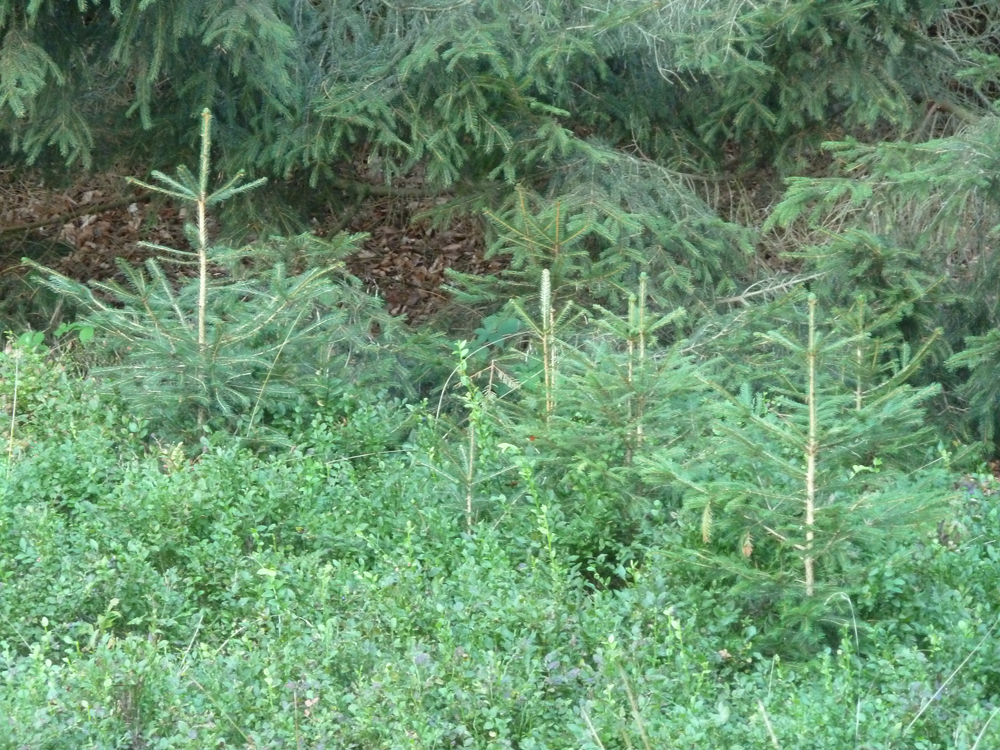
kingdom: Plantae
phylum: Tracheophyta
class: Pinopsida
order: Pinales
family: Pinaceae
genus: Picea
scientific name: Picea abies
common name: Norway spruce
